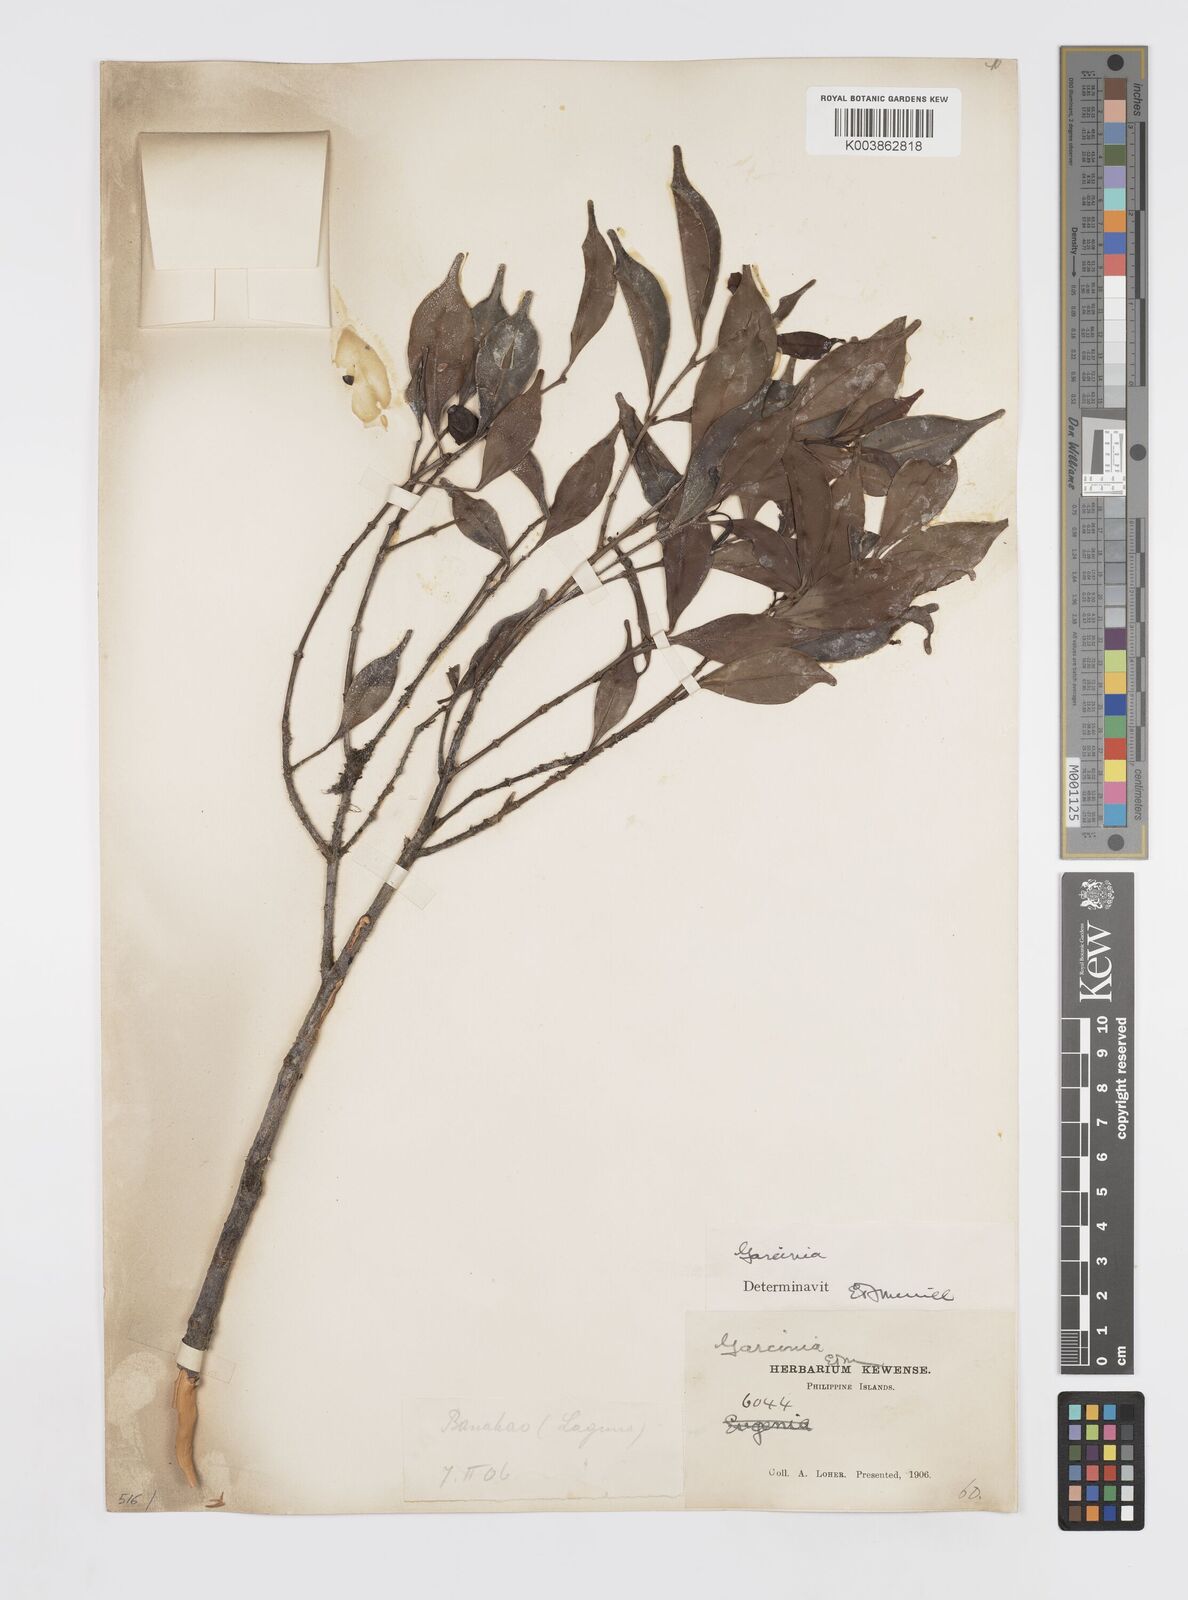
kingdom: Plantae
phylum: Tracheophyta
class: Magnoliopsida
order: Malpighiales
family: Clusiaceae
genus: Garcinia
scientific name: Garcinia
